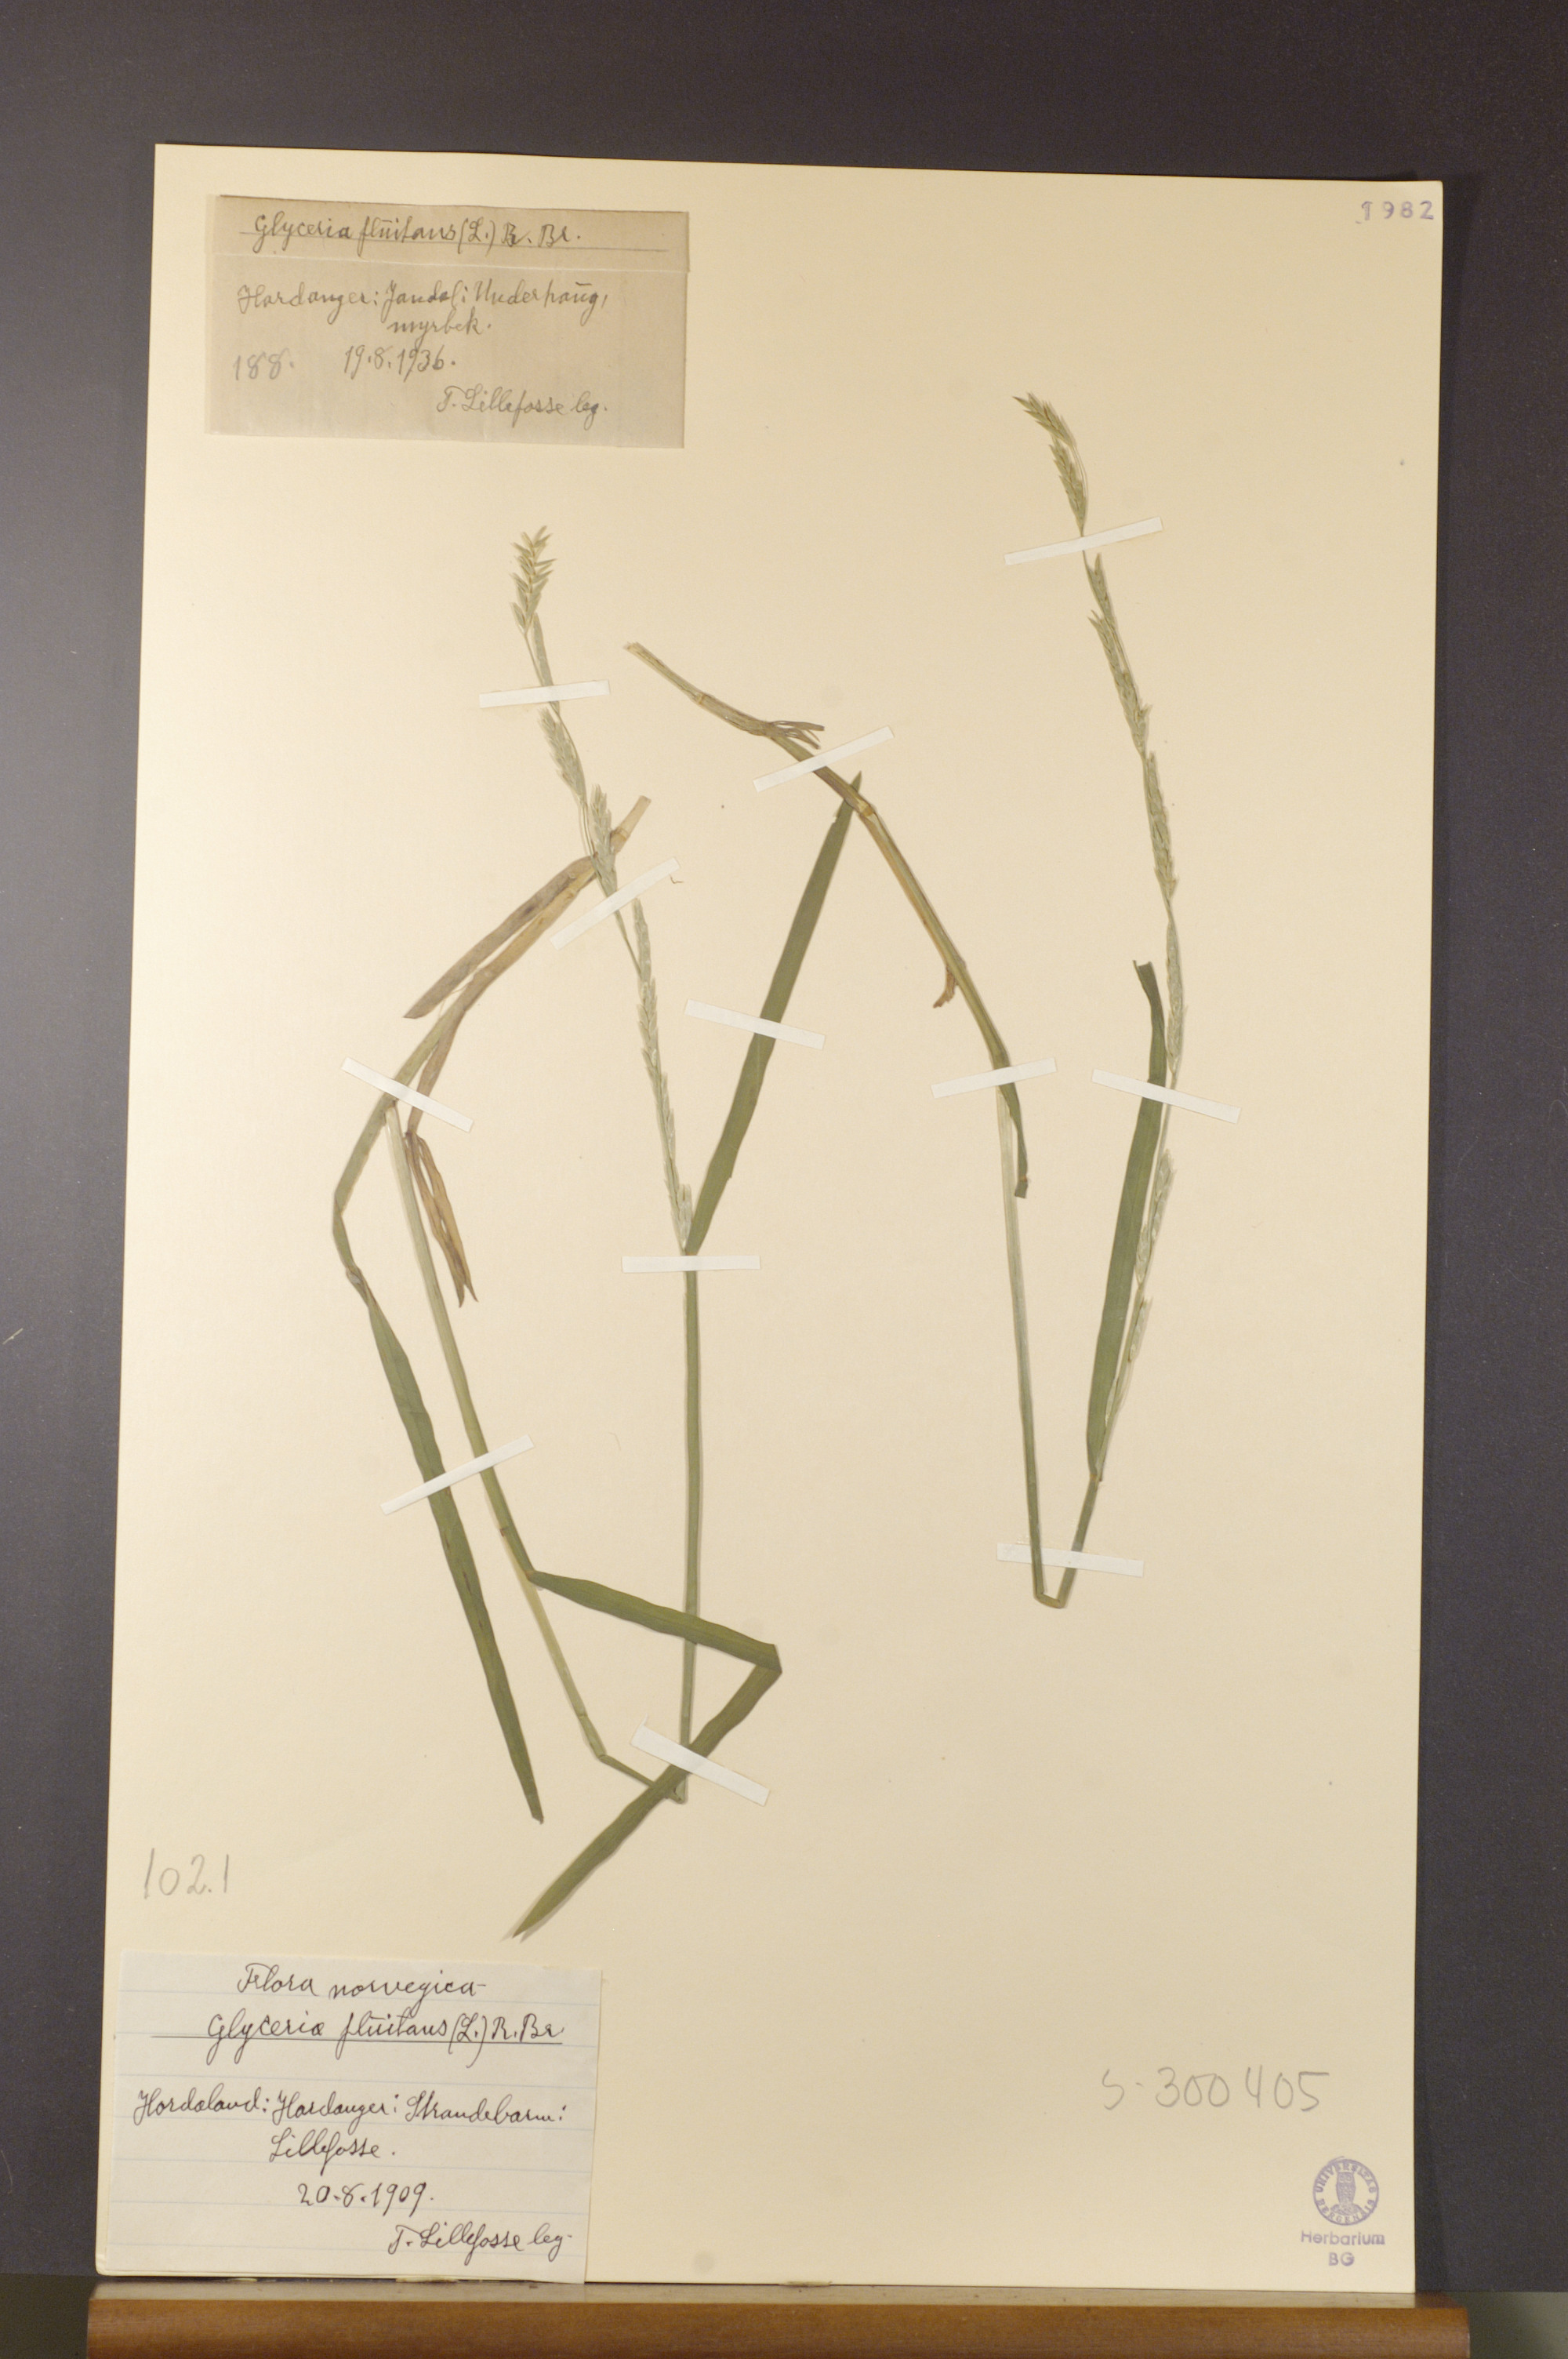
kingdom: Plantae
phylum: Tracheophyta
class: Liliopsida
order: Poales
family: Poaceae
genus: Glyceria
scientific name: Glyceria fluitans
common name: Floating sweet-grass
